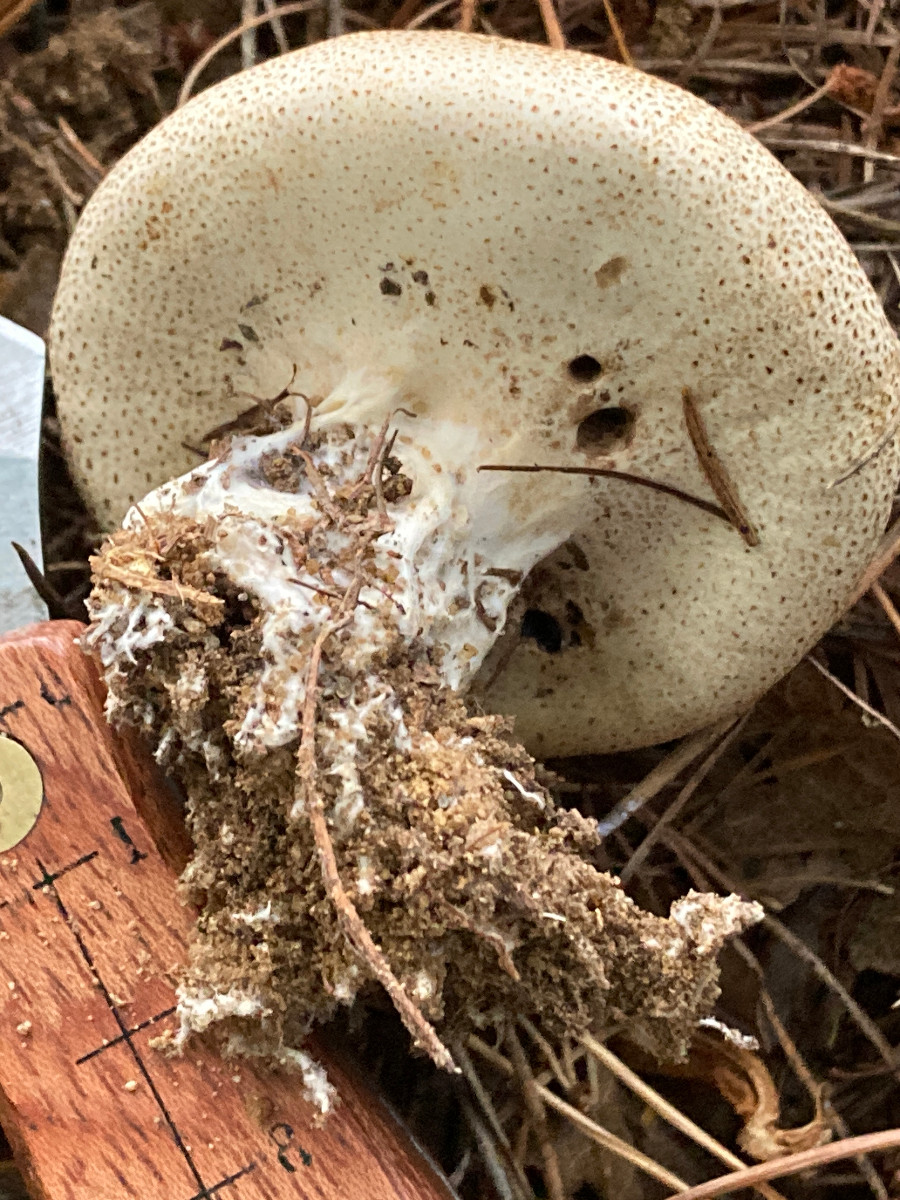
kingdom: Fungi
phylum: Basidiomycota
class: Agaricomycetes
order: Boletales
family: Sclerodermataceae
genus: Scleroderma
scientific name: Scleroderma verrucosum
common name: stilket bruskbold
